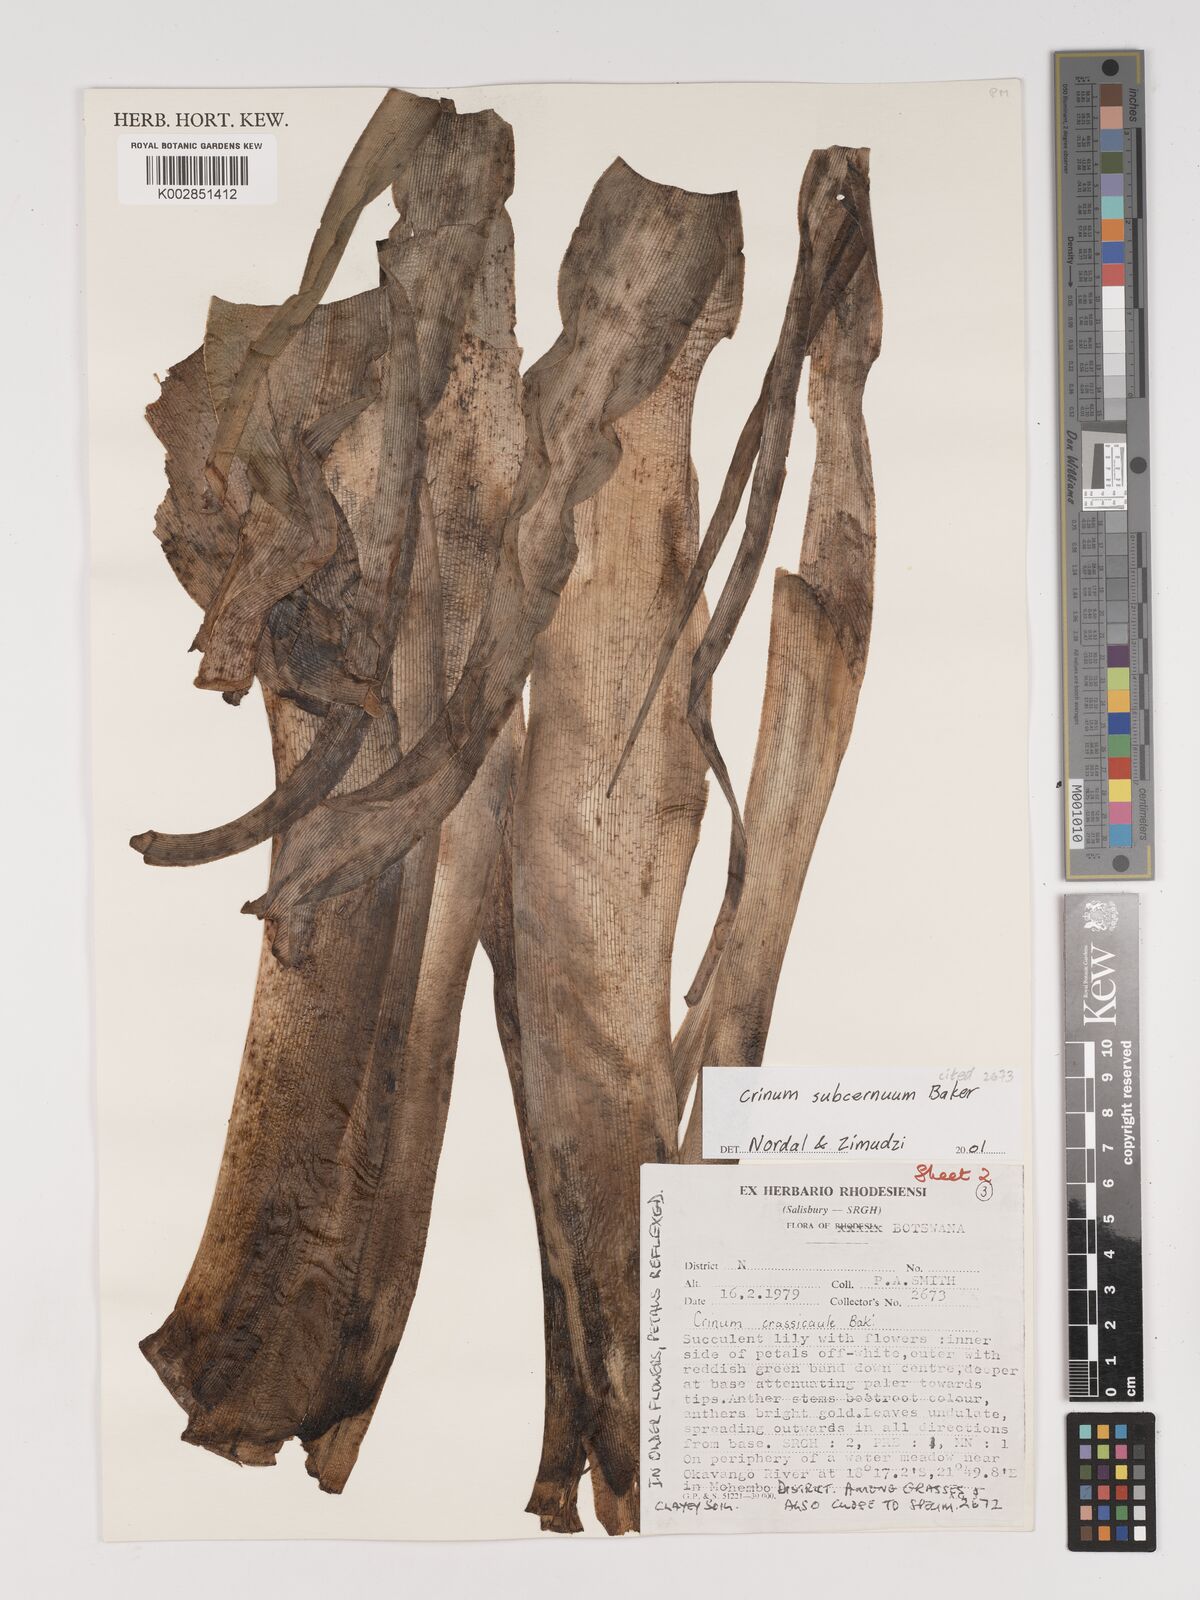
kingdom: Plantae
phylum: Tracheophyta
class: Liliopsida
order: Asparagales
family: Amaryllidaceae
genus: Crinum
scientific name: Crinum subcernuum
